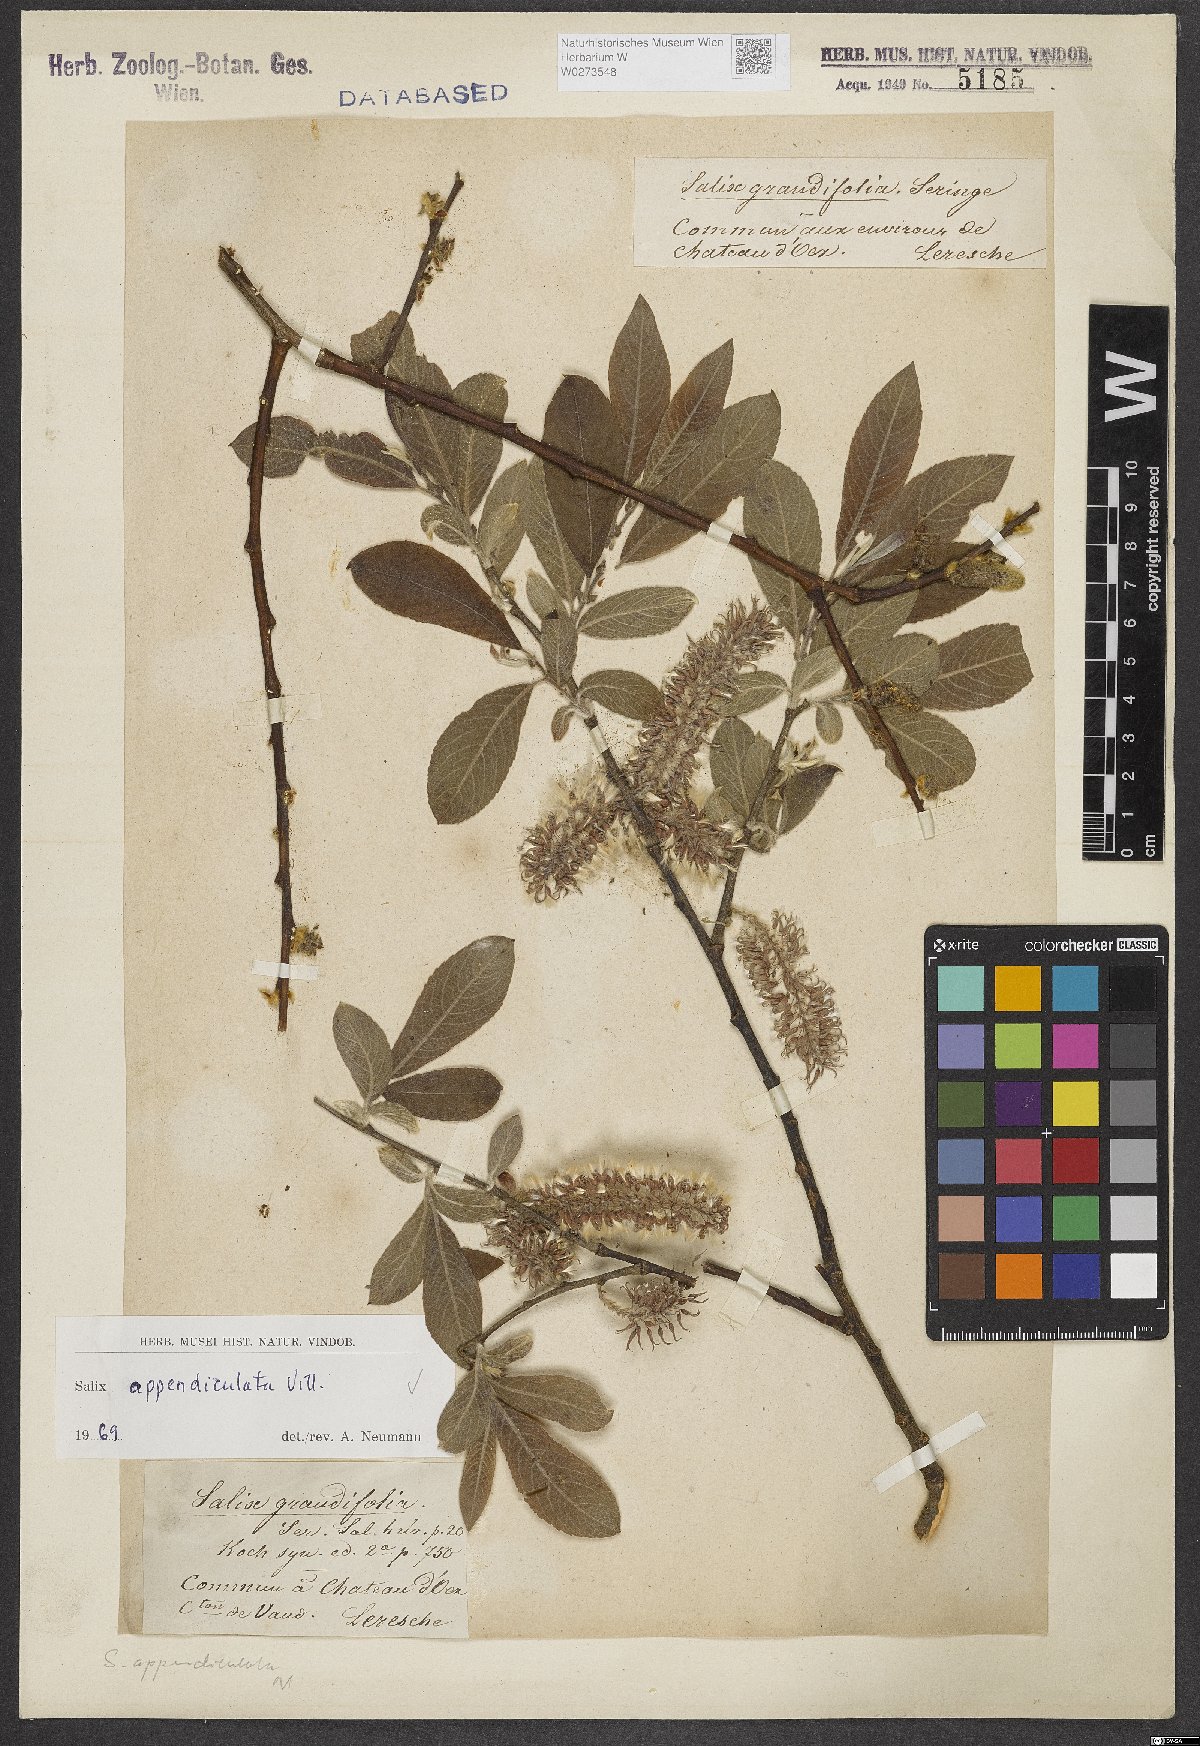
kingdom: Plantae
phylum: Tracheophyta
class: Magnoliopsida
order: Malpighiales
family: Salicaceae
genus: Salix
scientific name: Salix appendiculata
